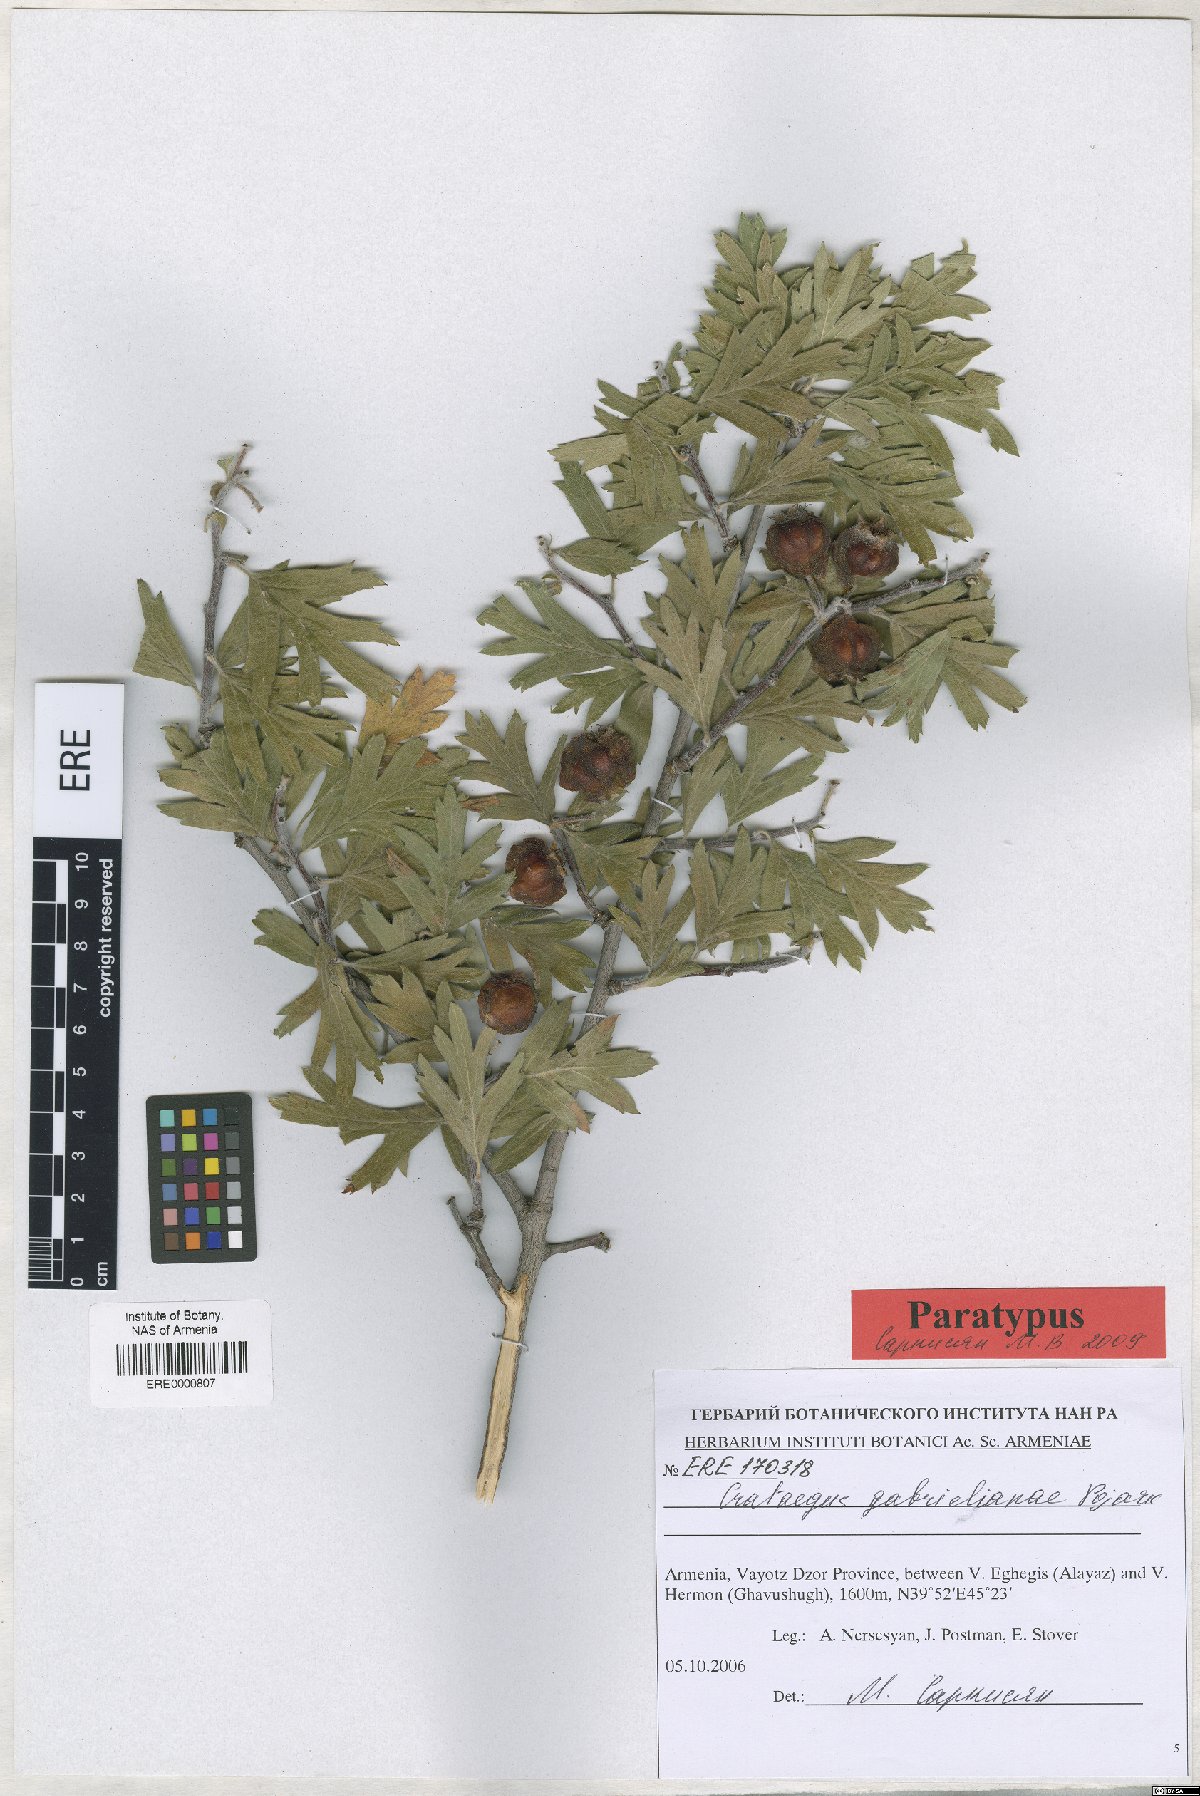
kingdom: Plantae
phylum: Tracheophyta
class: Magnoliopsida
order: Rosales
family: Rosaceae
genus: Crataegus
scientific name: Crataegus
